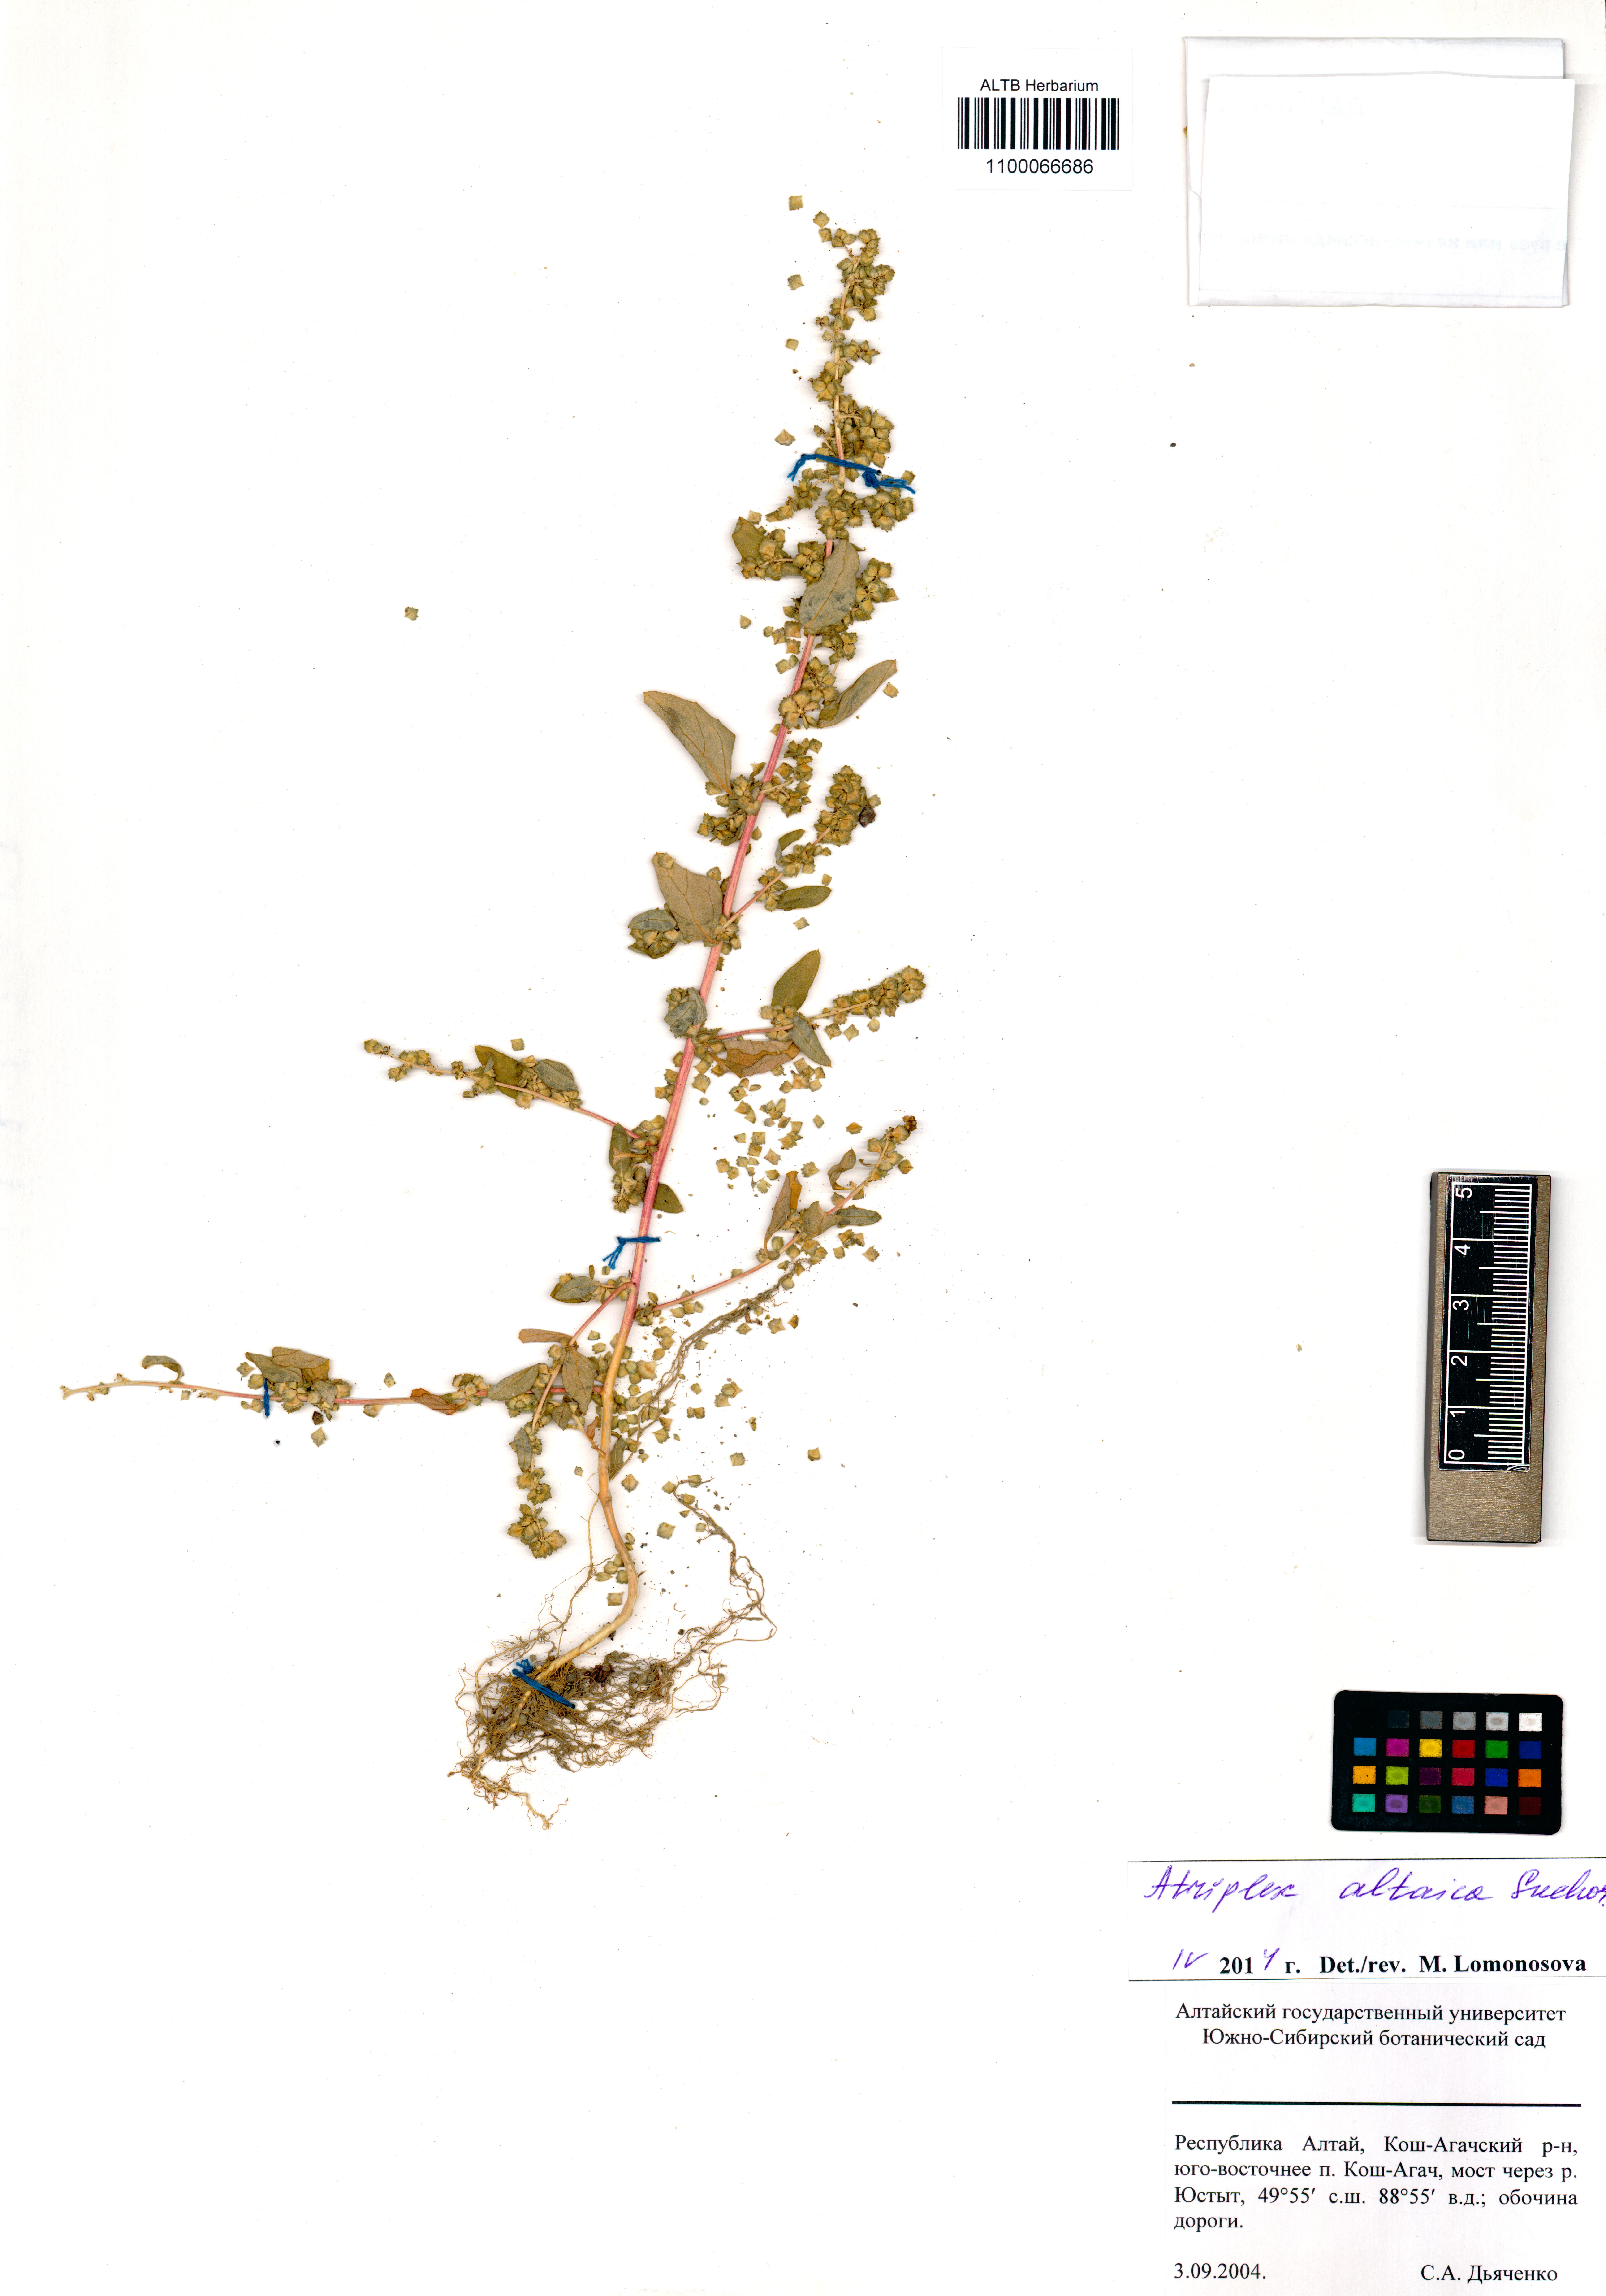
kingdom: Plantae
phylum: Tracheophyta
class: Magnoliopsida
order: Caryophyllales
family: Amaranthaceae
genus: Atriplex
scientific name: Atriplex altaica
